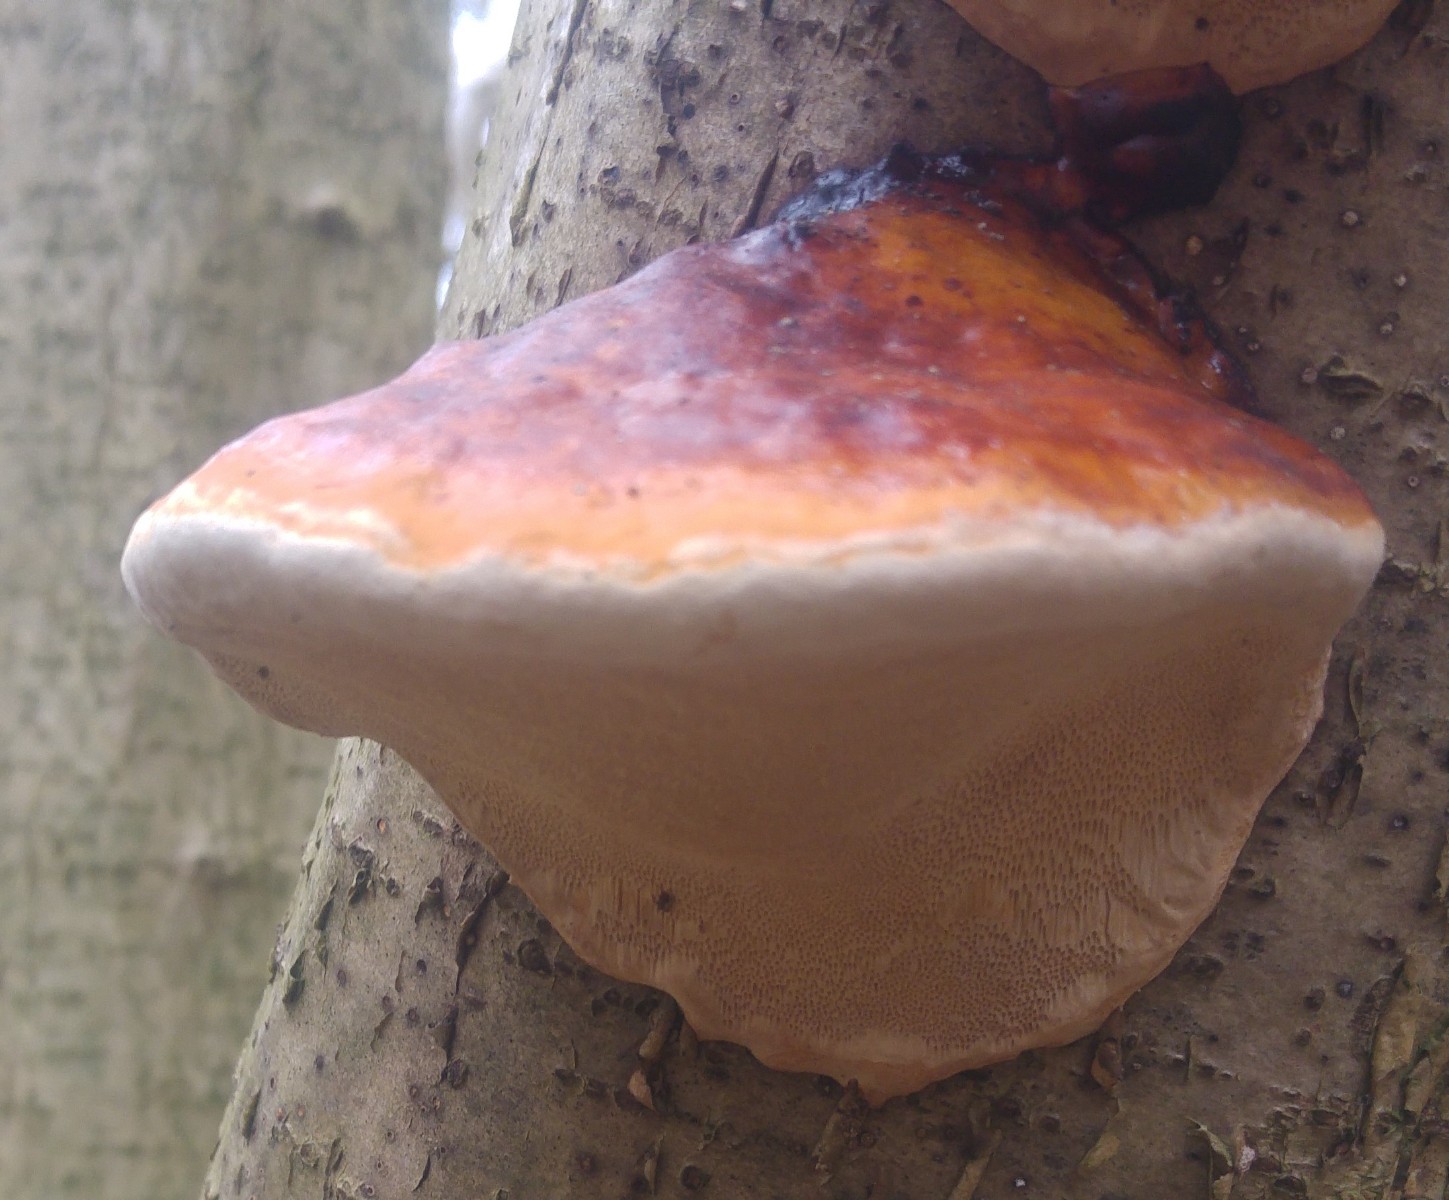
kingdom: Fungi
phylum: Basidiomycota
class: Agaricomycetes
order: Polyporales
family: Fomitopsidaceae
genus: Fomitopsis
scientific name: Fomitopsis pinicola
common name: randbæltet hovporesvamp
